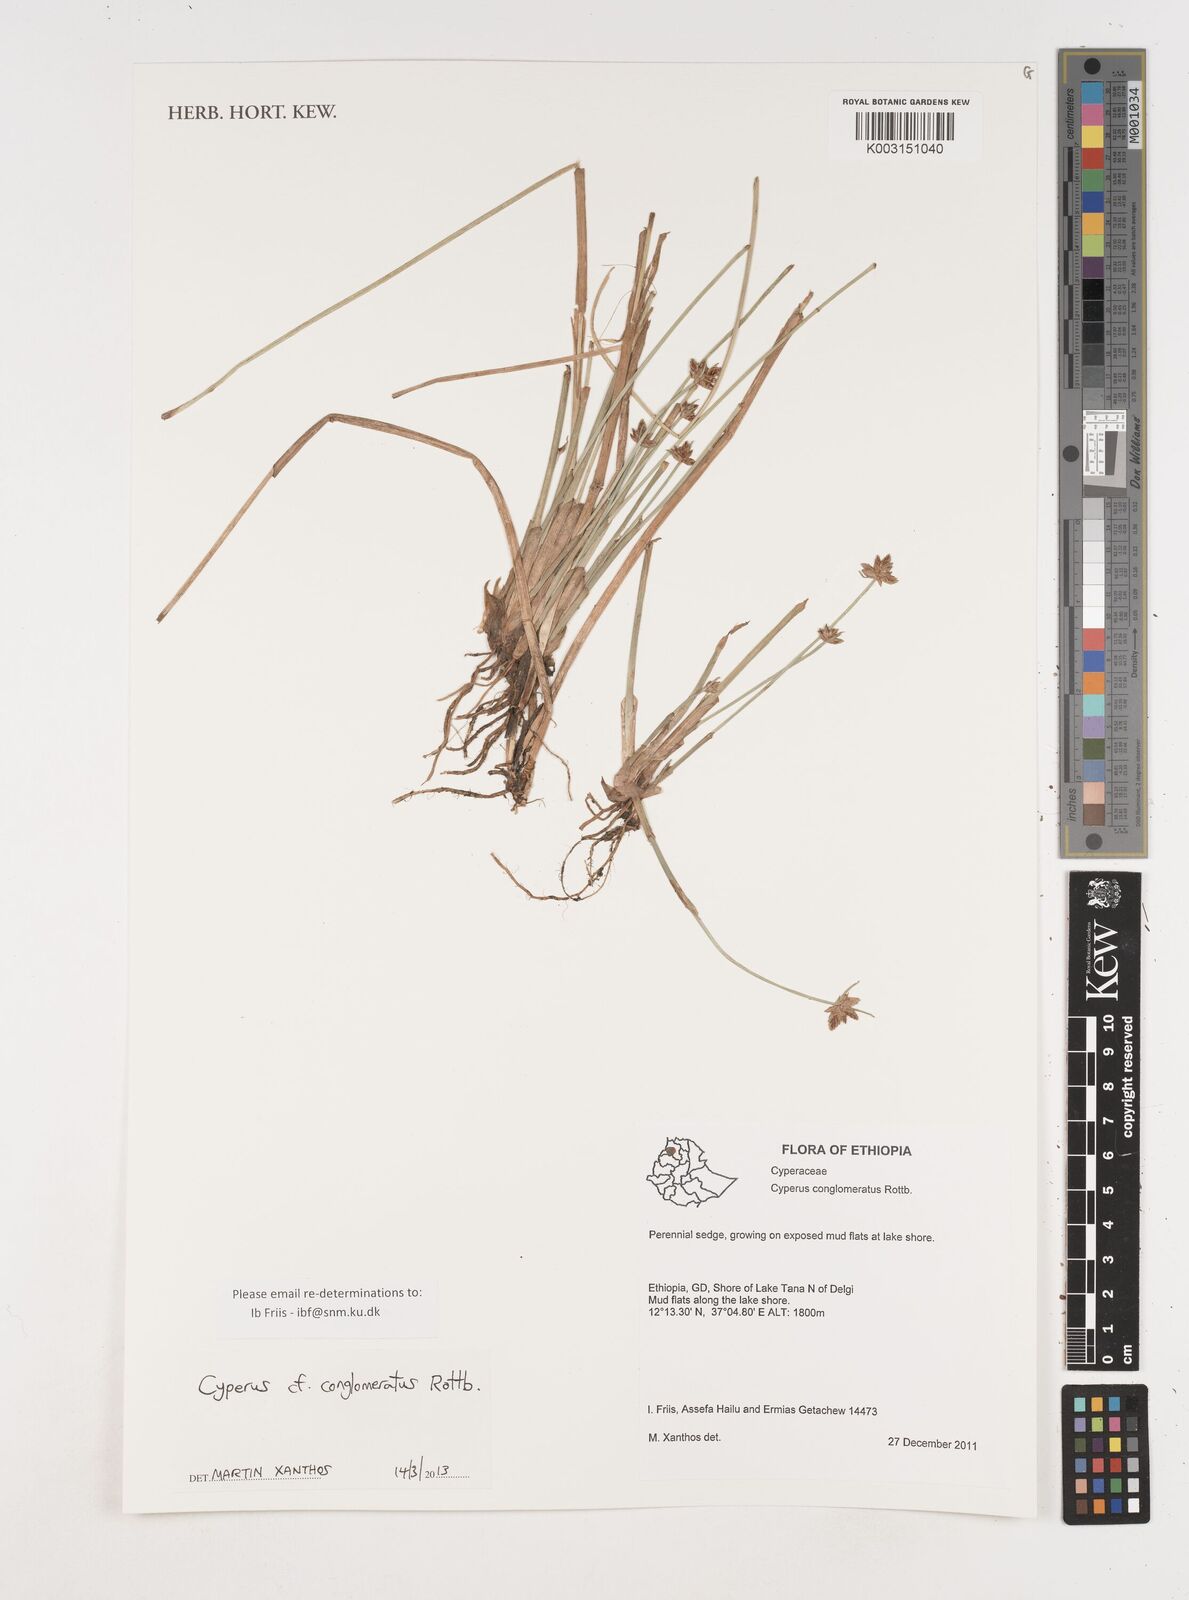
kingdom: Plantae
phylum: Tracheophyta
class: Liliopsida
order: Poales
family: Cyperaceae
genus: Cyperus
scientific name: Cyperus conglomeratus
